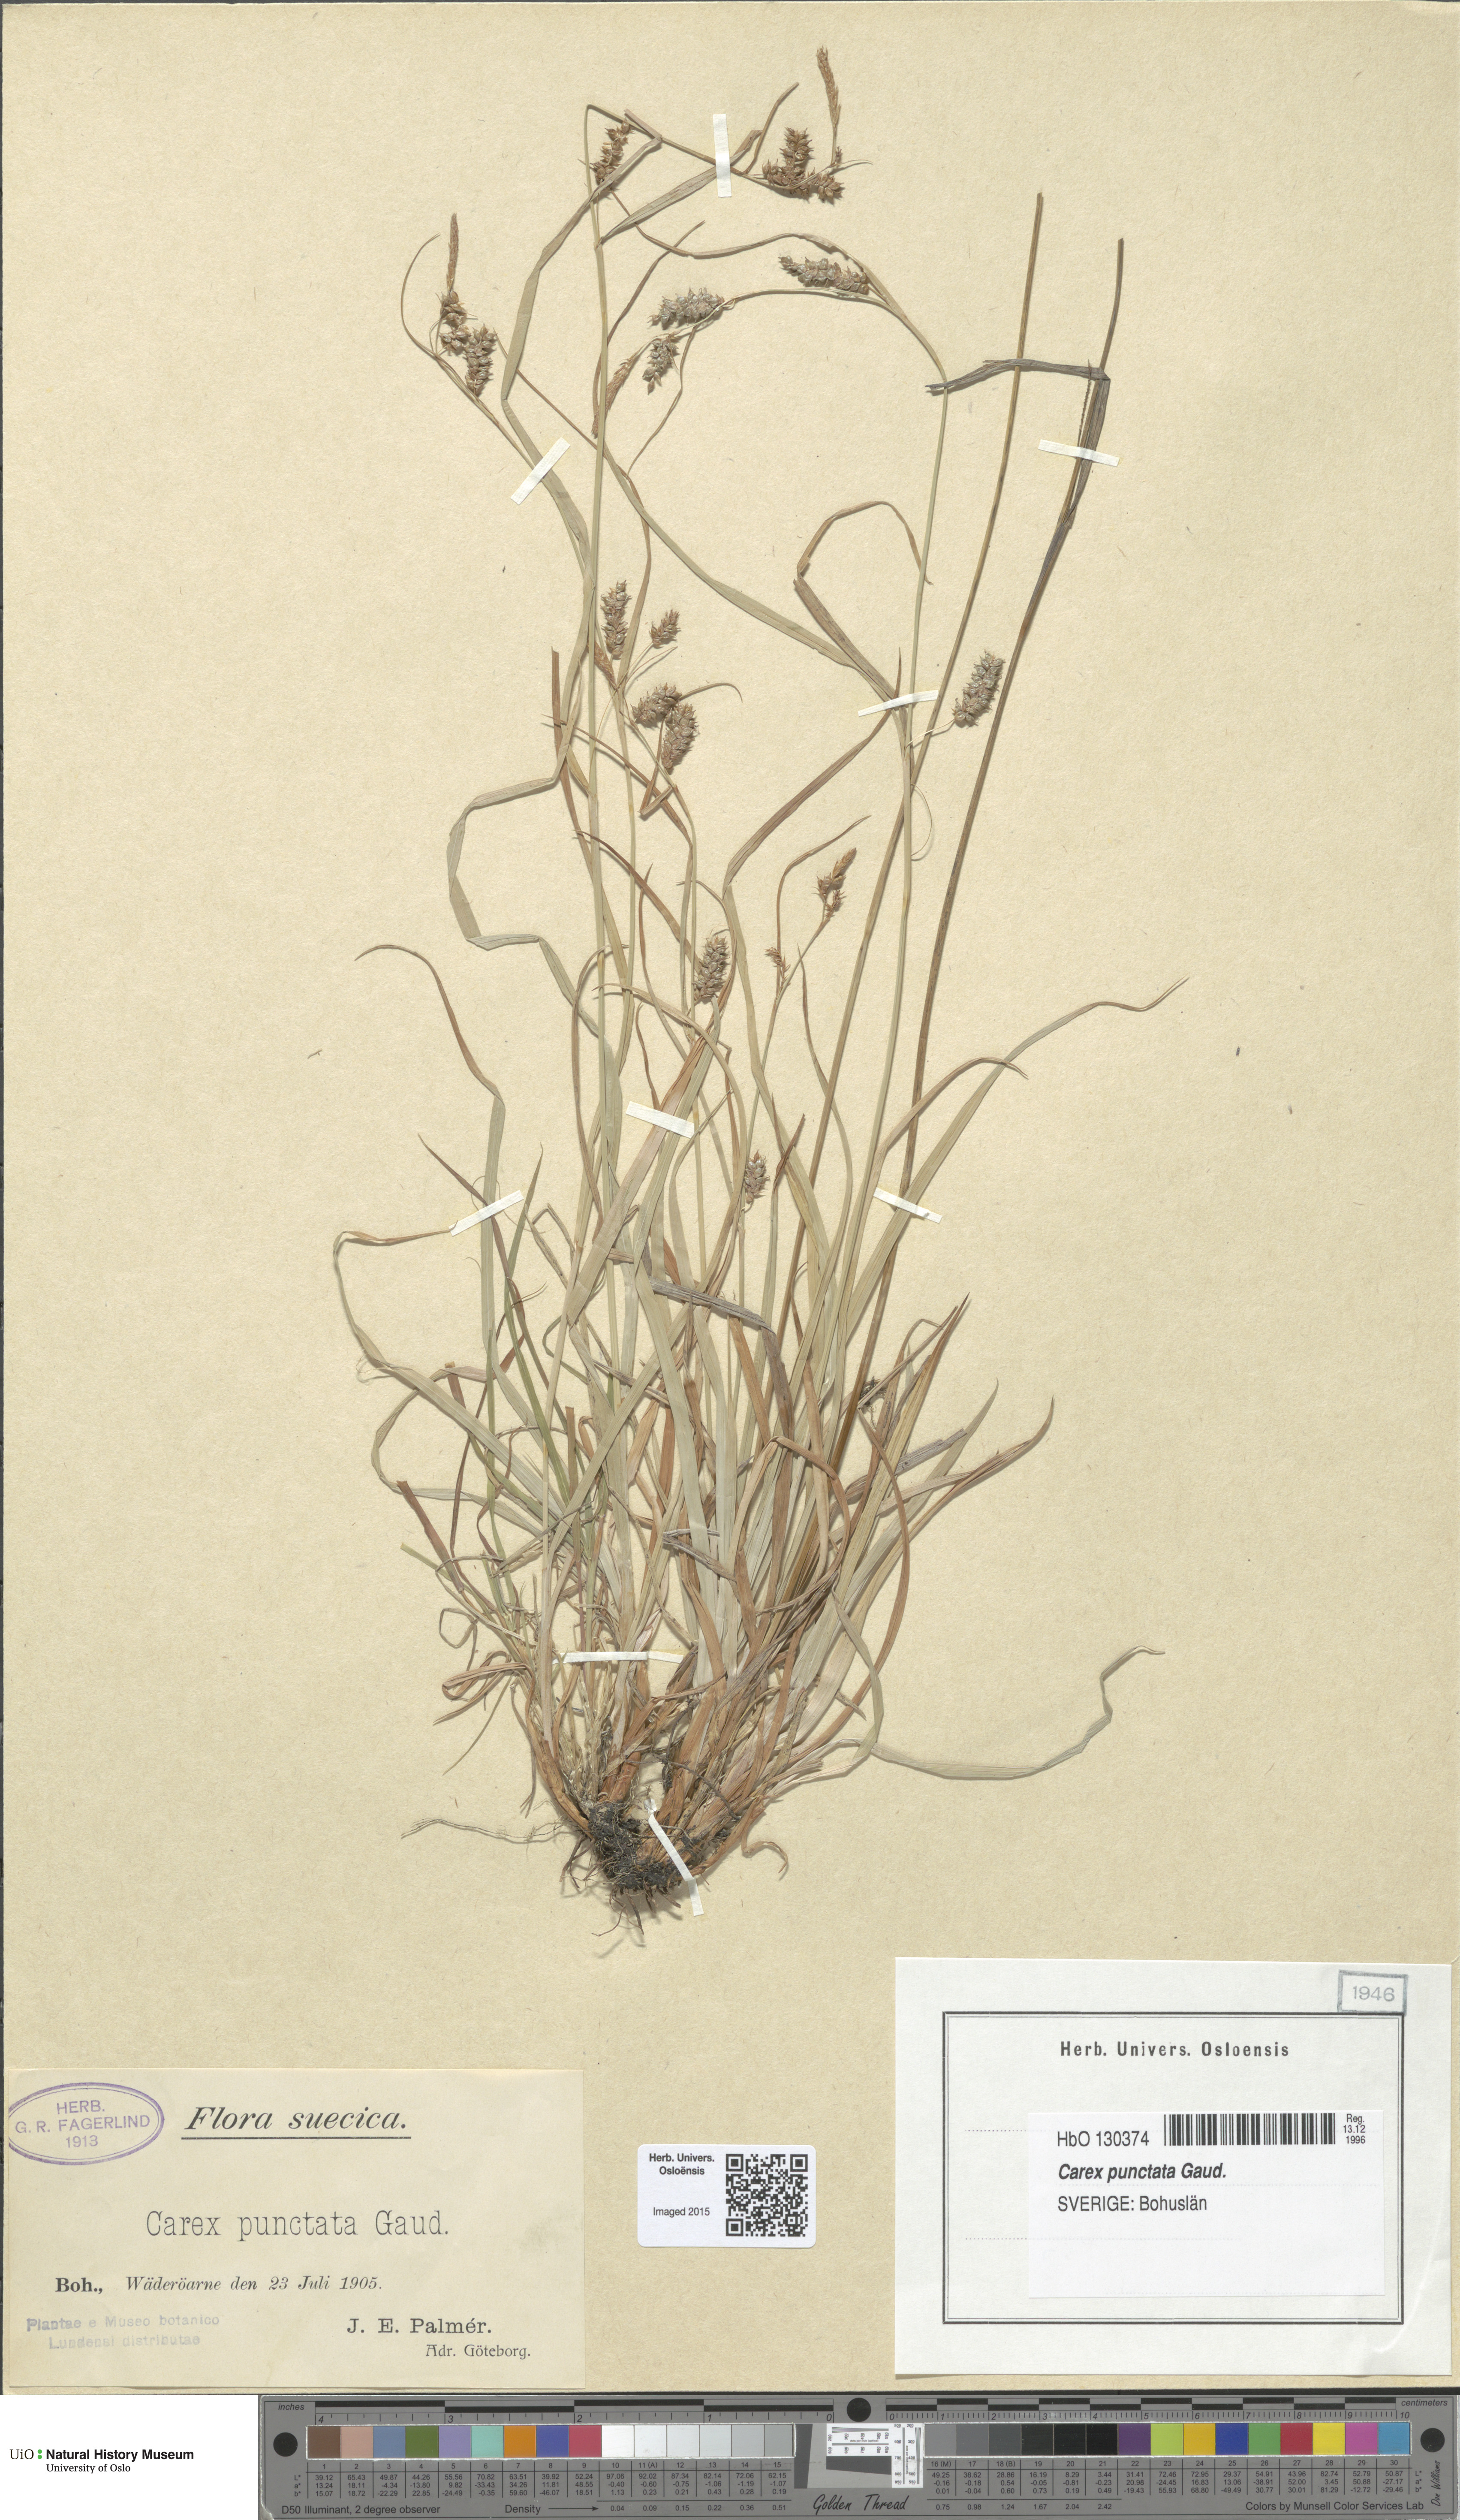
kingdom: Plantae
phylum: Tracheophyta
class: Liliopsida
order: Poales
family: Cyperaceae
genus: Carex
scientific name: Carex punctata
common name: Dotted sedge
